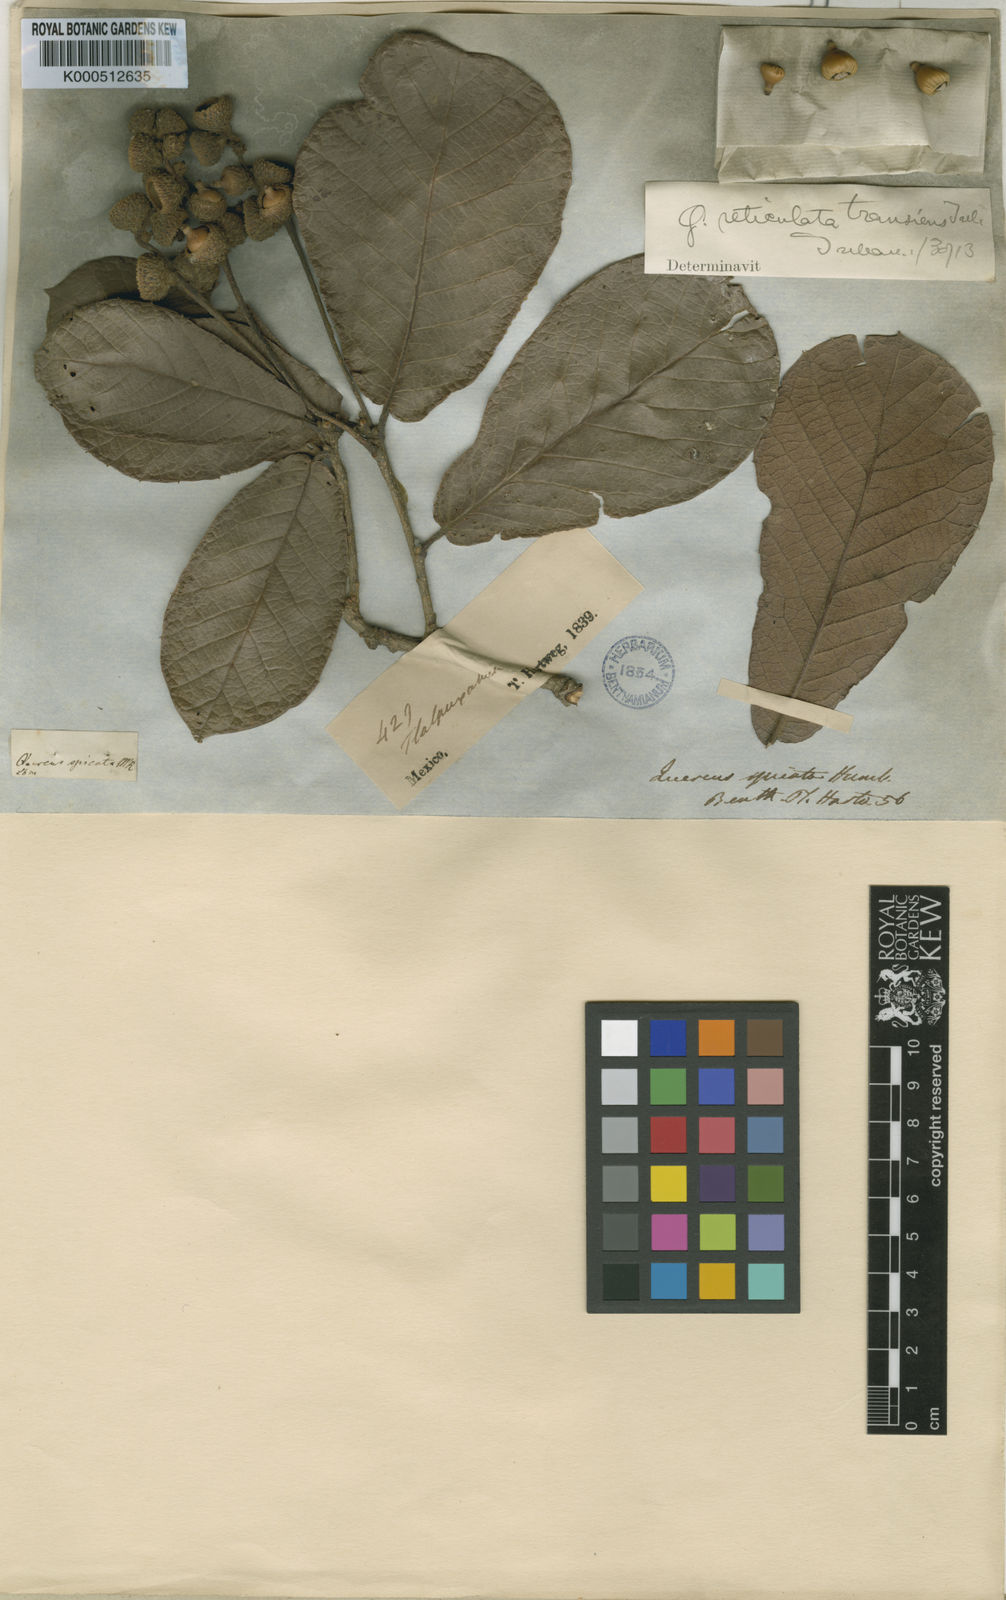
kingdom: Plantae
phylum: Tracheophyta
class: Magnoliopsida
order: Fagales
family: Fagaceae
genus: Quercus
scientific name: Quercus rugosa
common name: Netleaf oak
